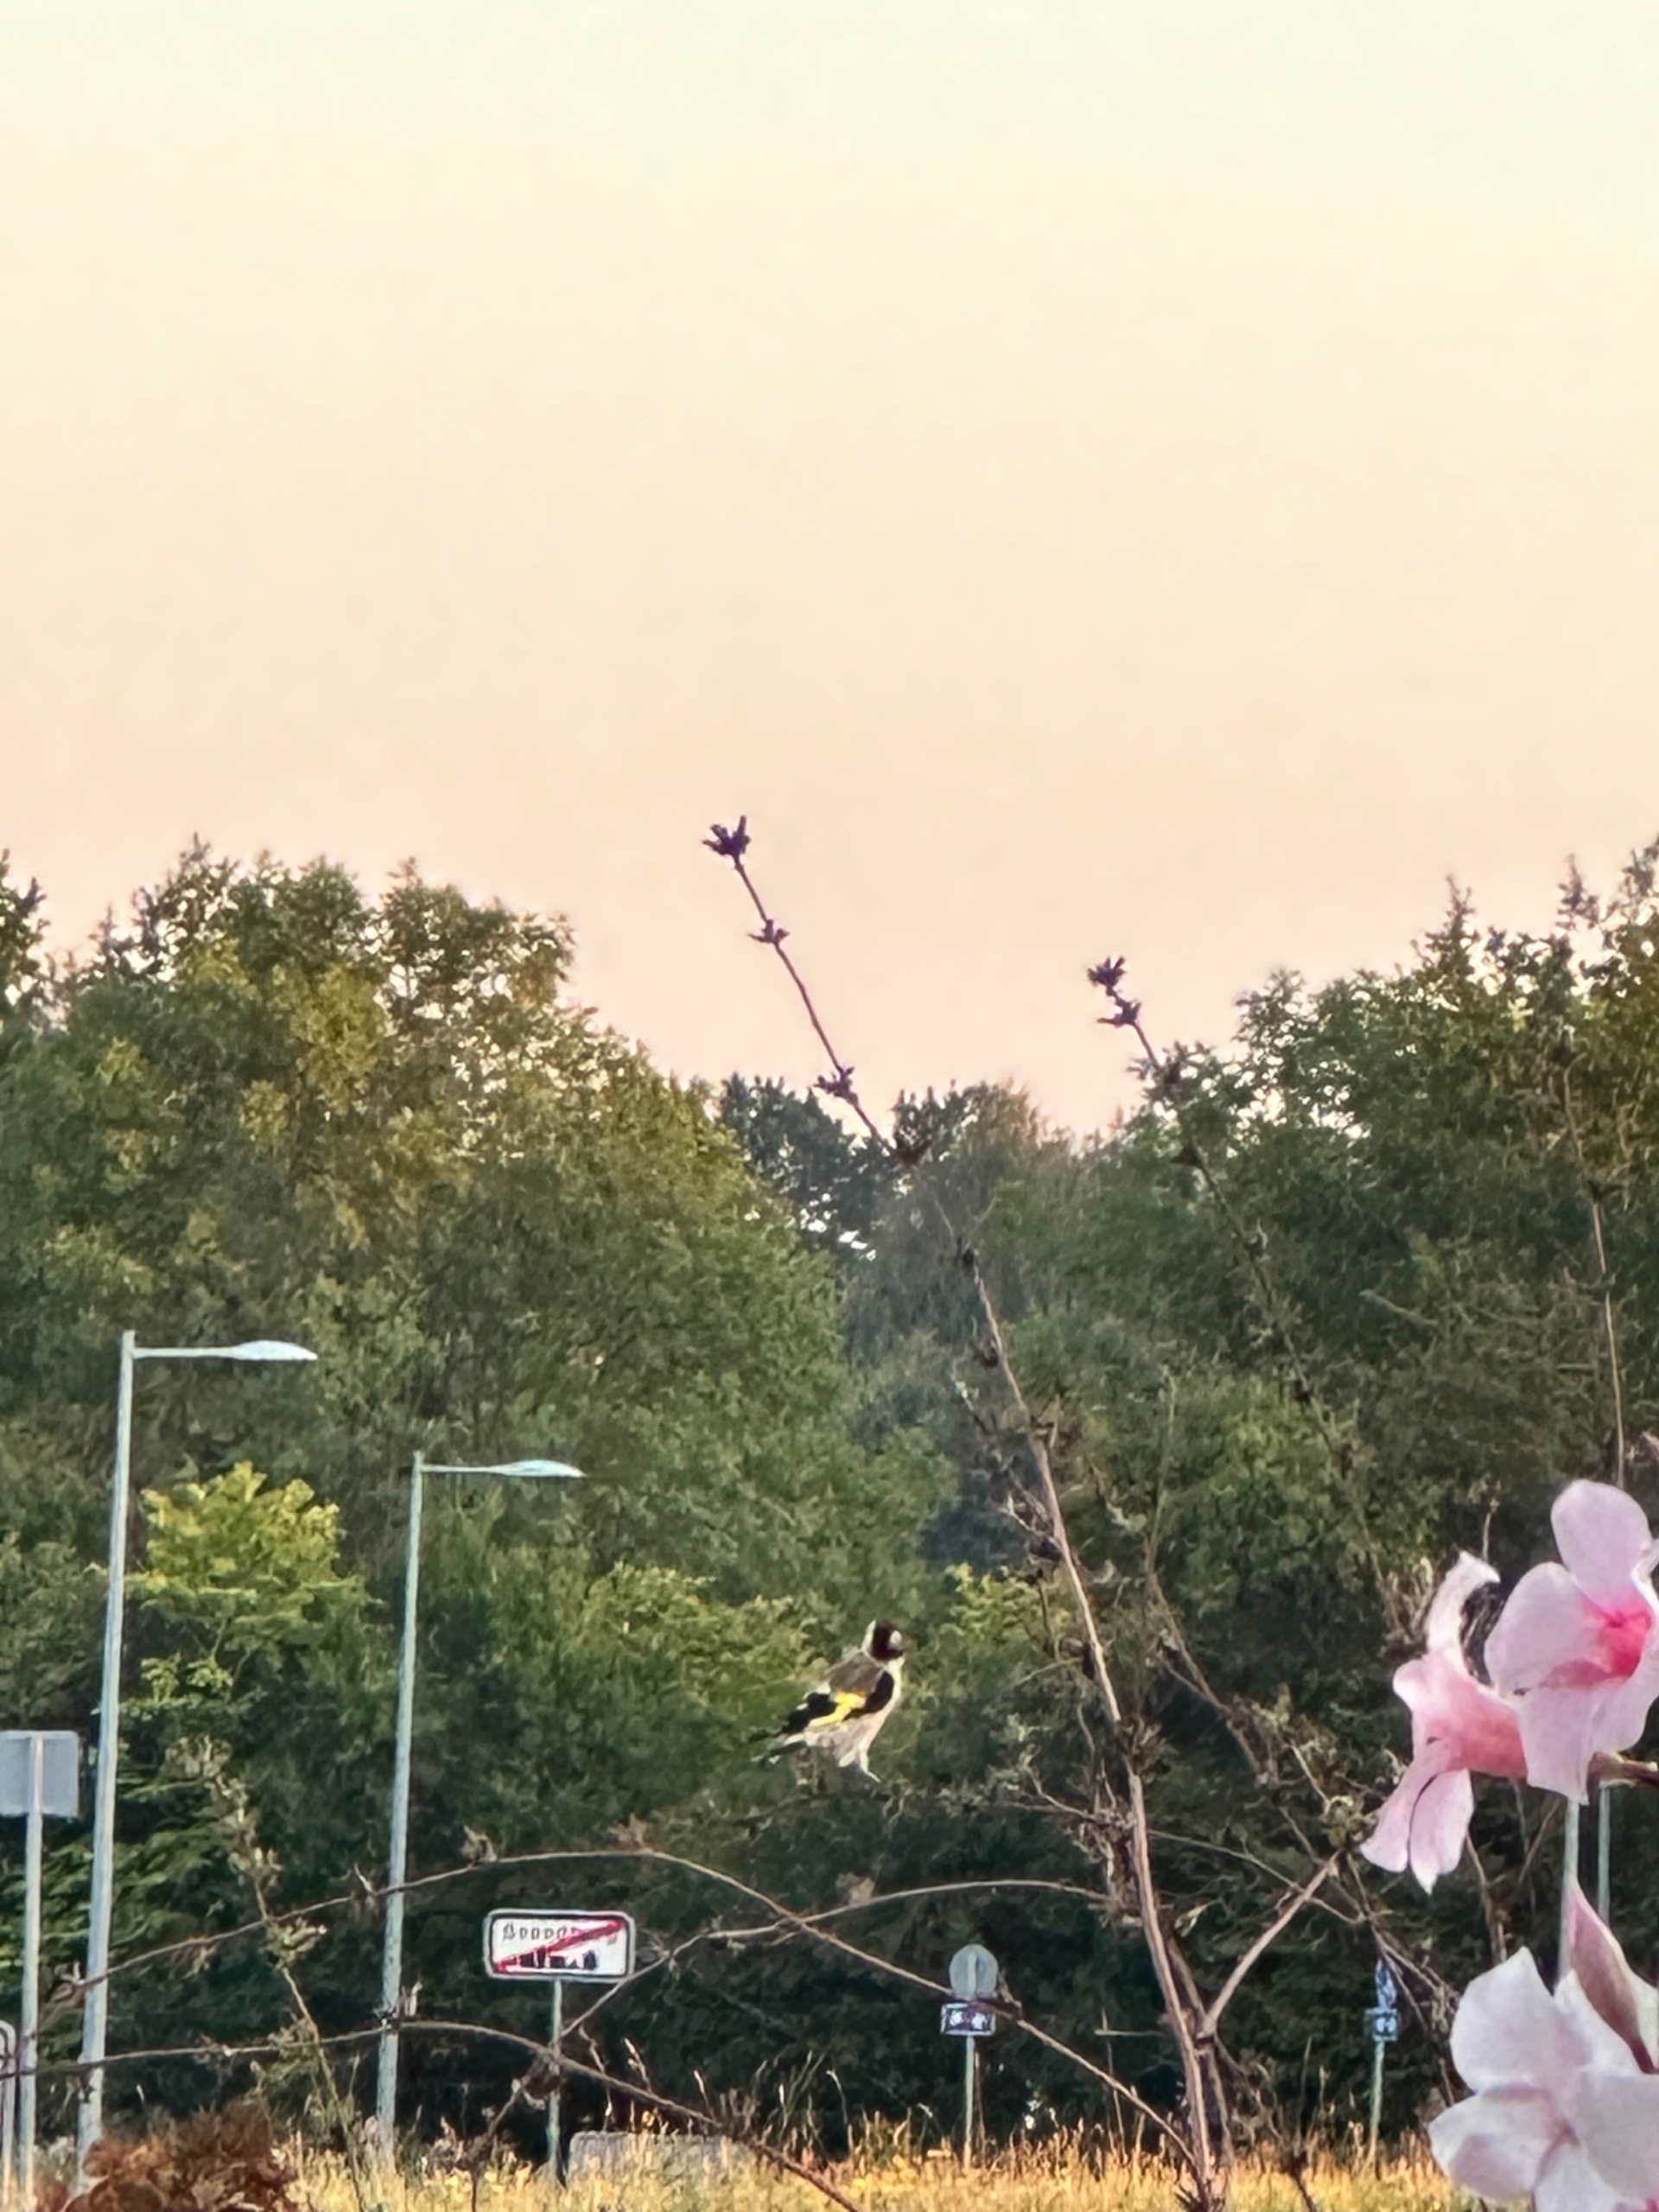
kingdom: Animalia
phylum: Chordata
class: Aves
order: Passeriformes
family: Fringillidae
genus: Carduelis
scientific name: Carduelis carduelis
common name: Stillits
